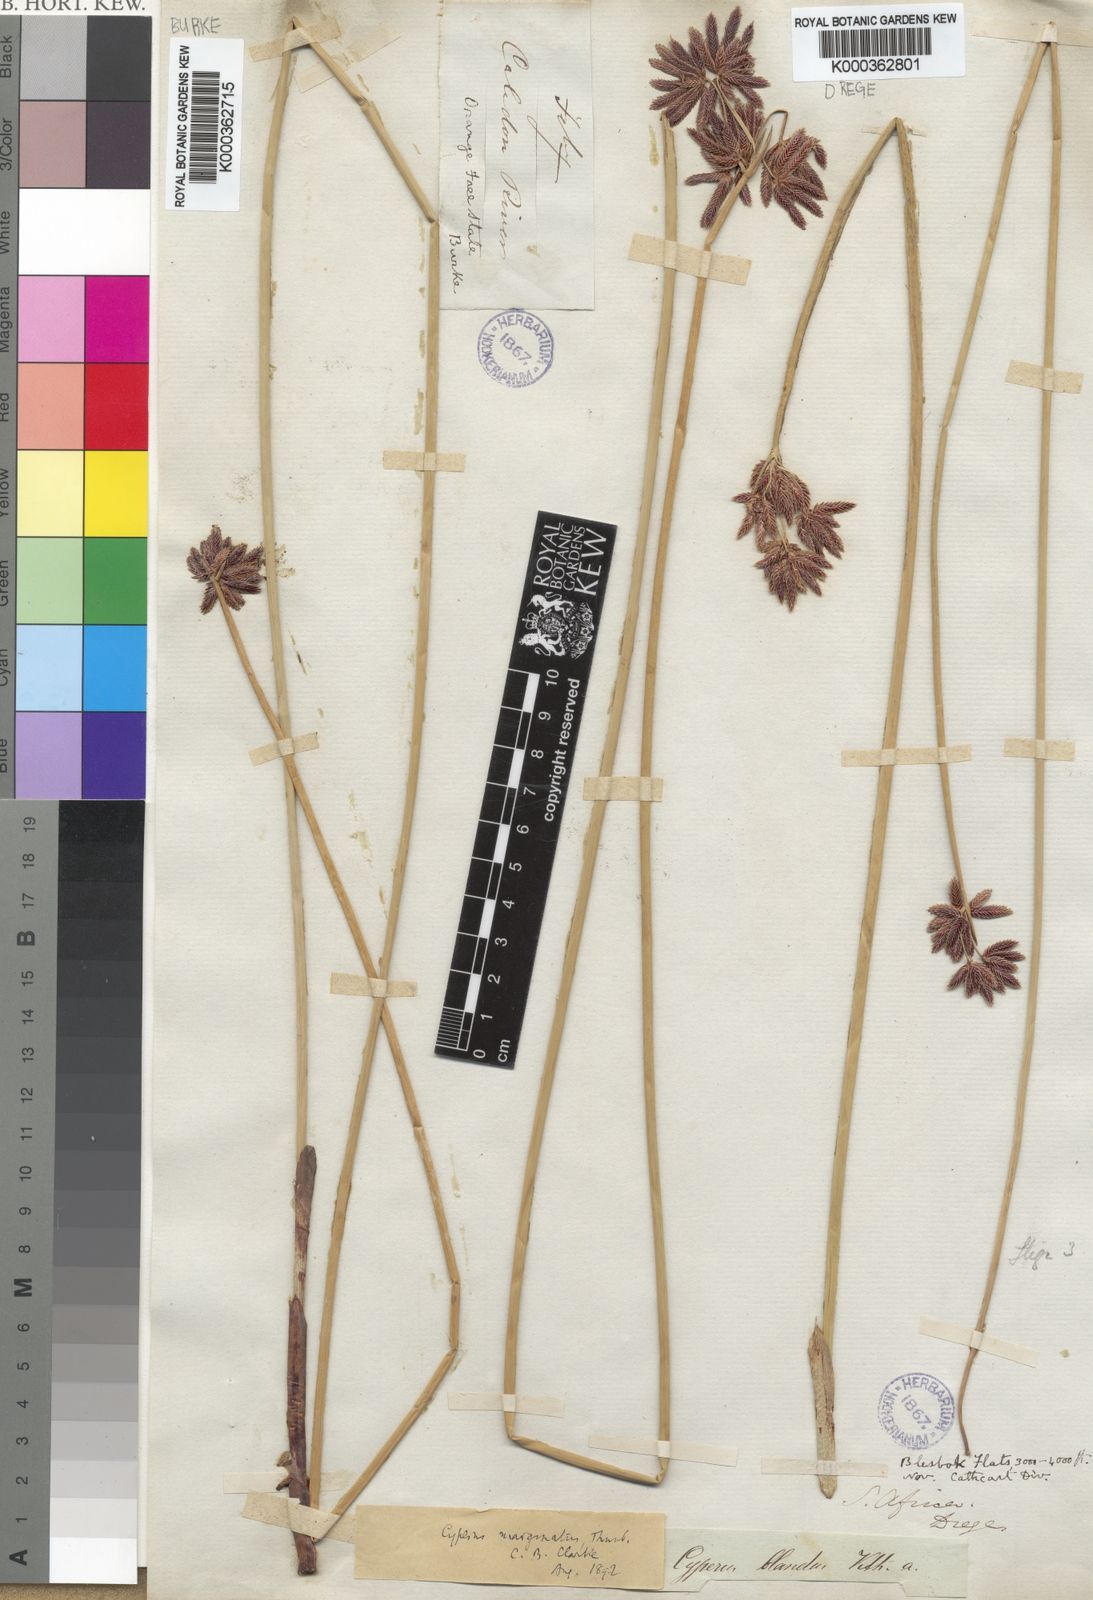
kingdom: Plantae
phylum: Tracheophyta
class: Liliopsida
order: Poales
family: Cyperaceae
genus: Cyperus
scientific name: Cyperus marginatus
